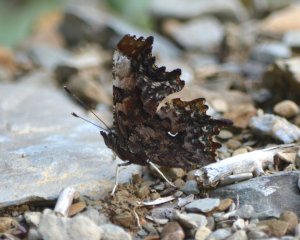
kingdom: Animalia
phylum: Arthropoda
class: Insecta
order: Lepidoptera
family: Nymphalidae
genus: Polygonia
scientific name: Polygonia faunus
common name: Green Comma
